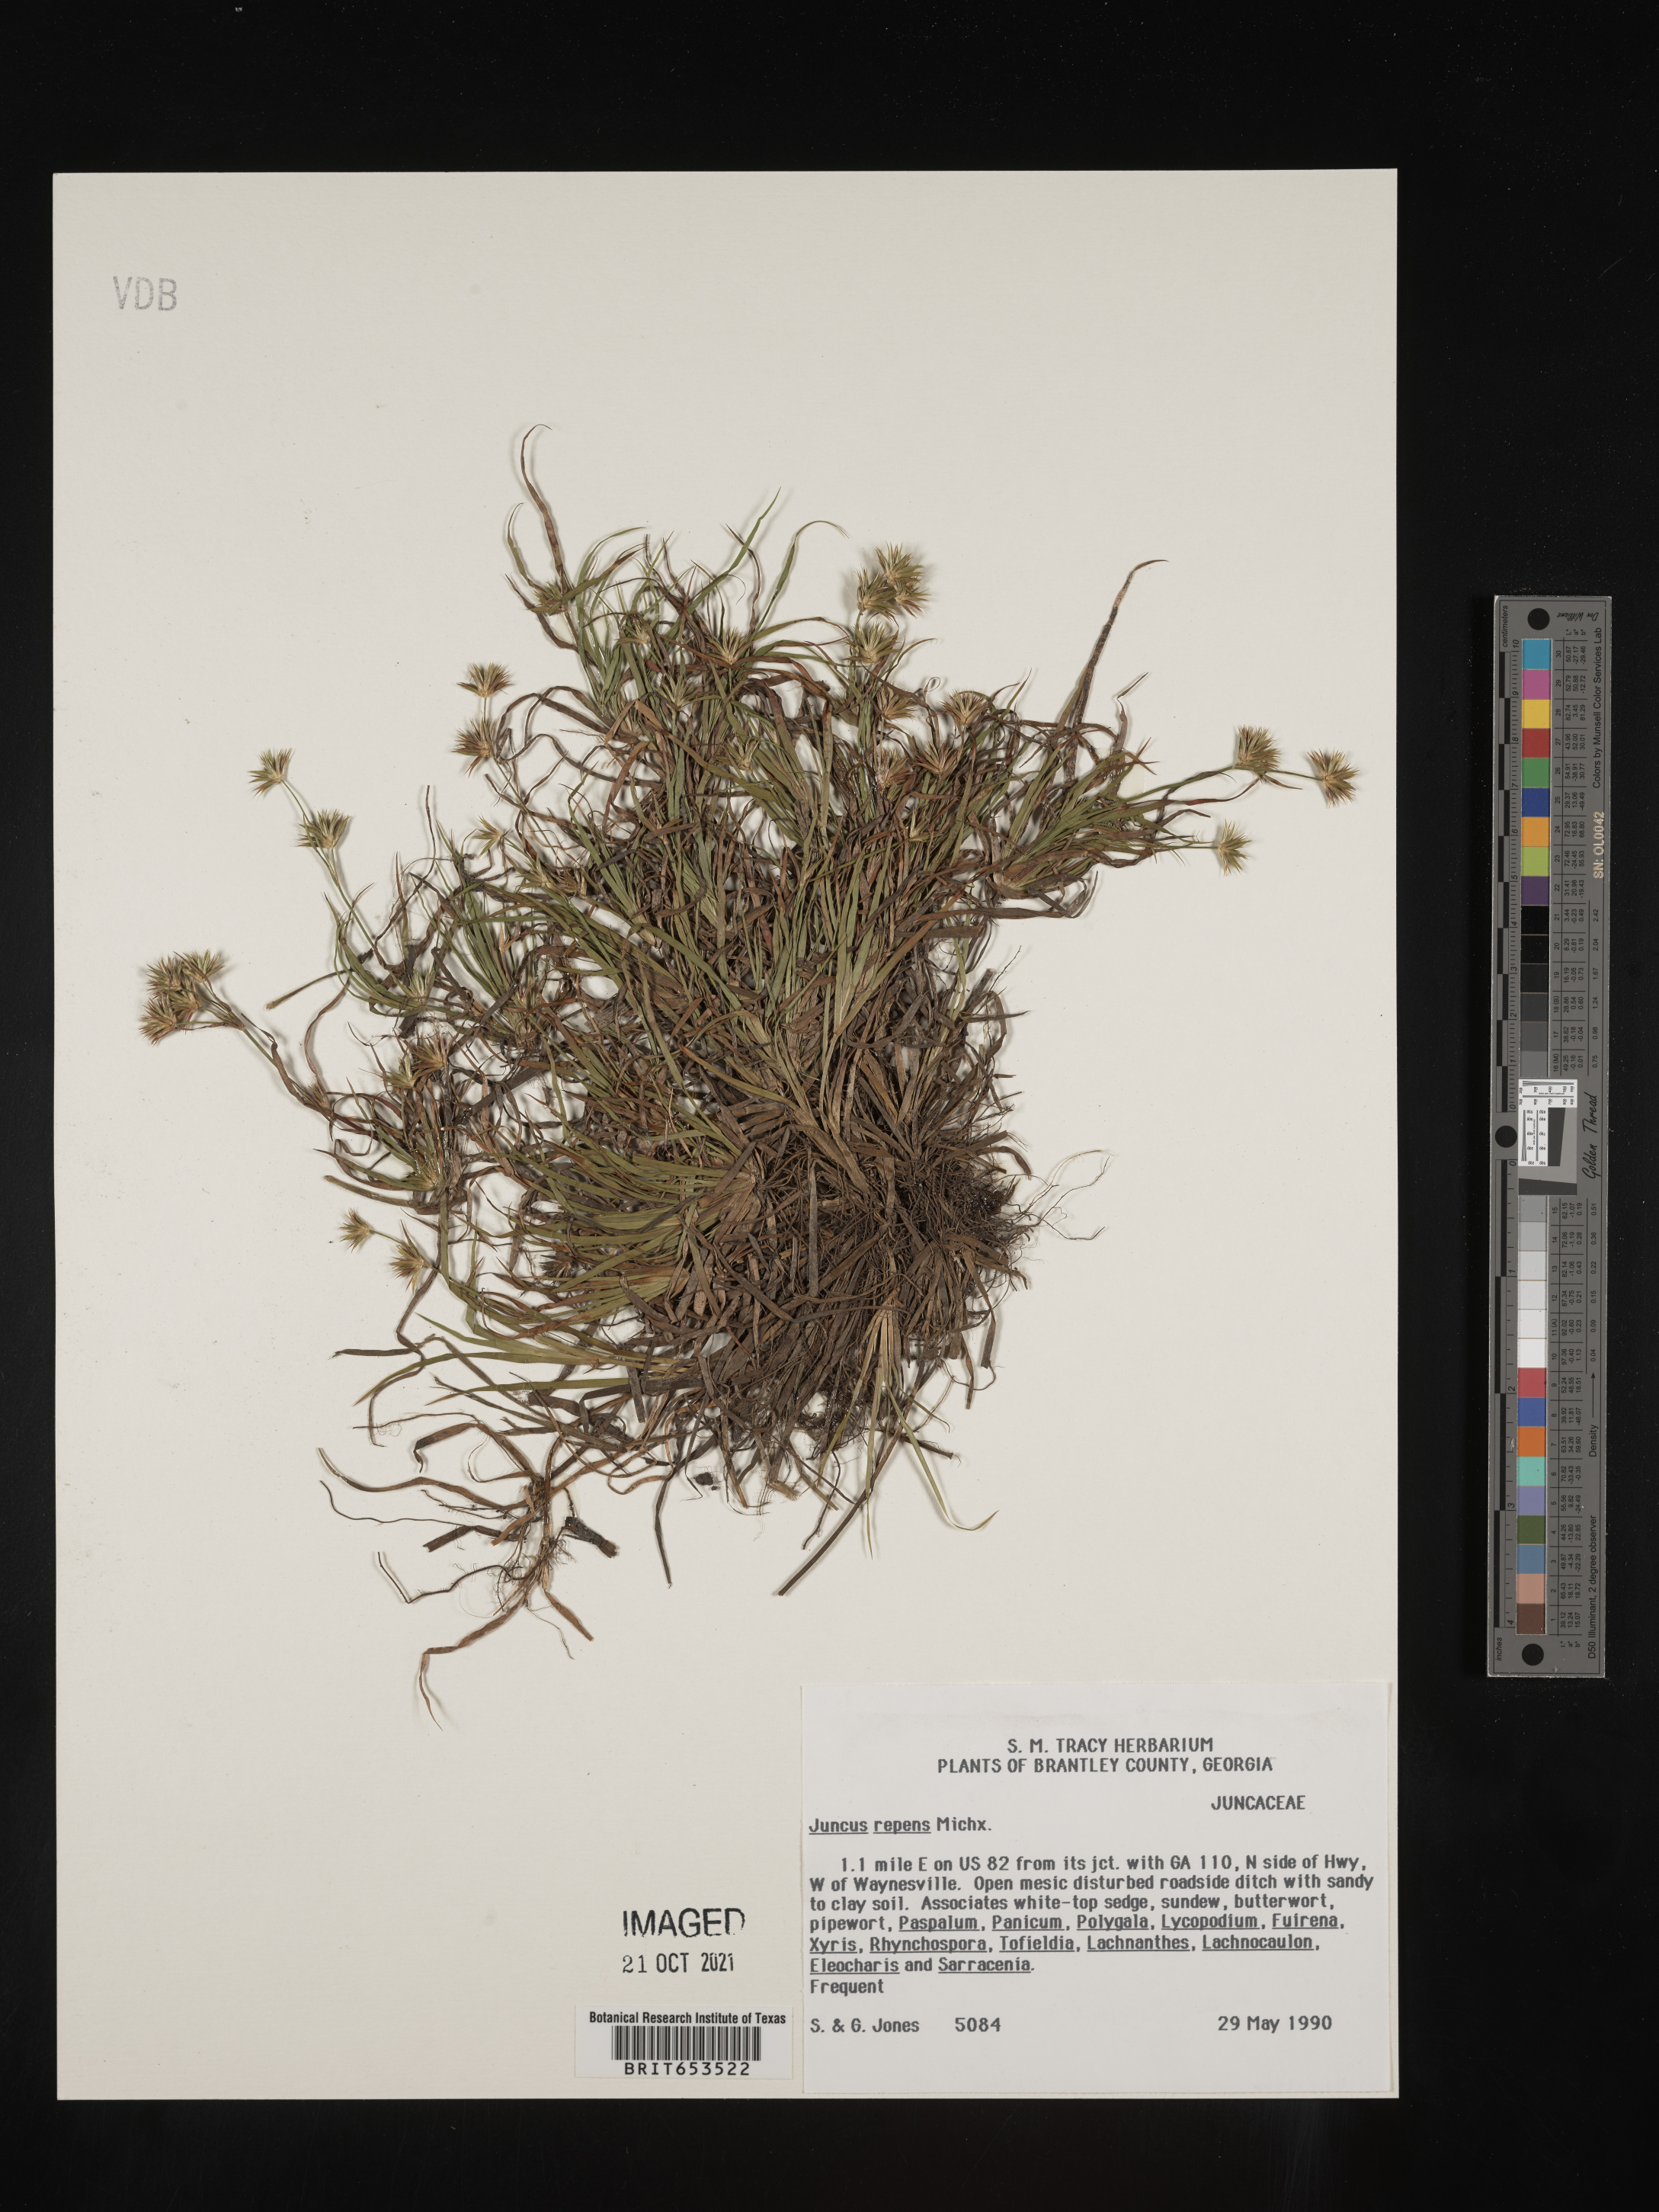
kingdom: Plantae
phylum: Tracheophyta
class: Liliopsida
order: Poales
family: Juncaceae
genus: Juncus
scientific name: Juncus repens
